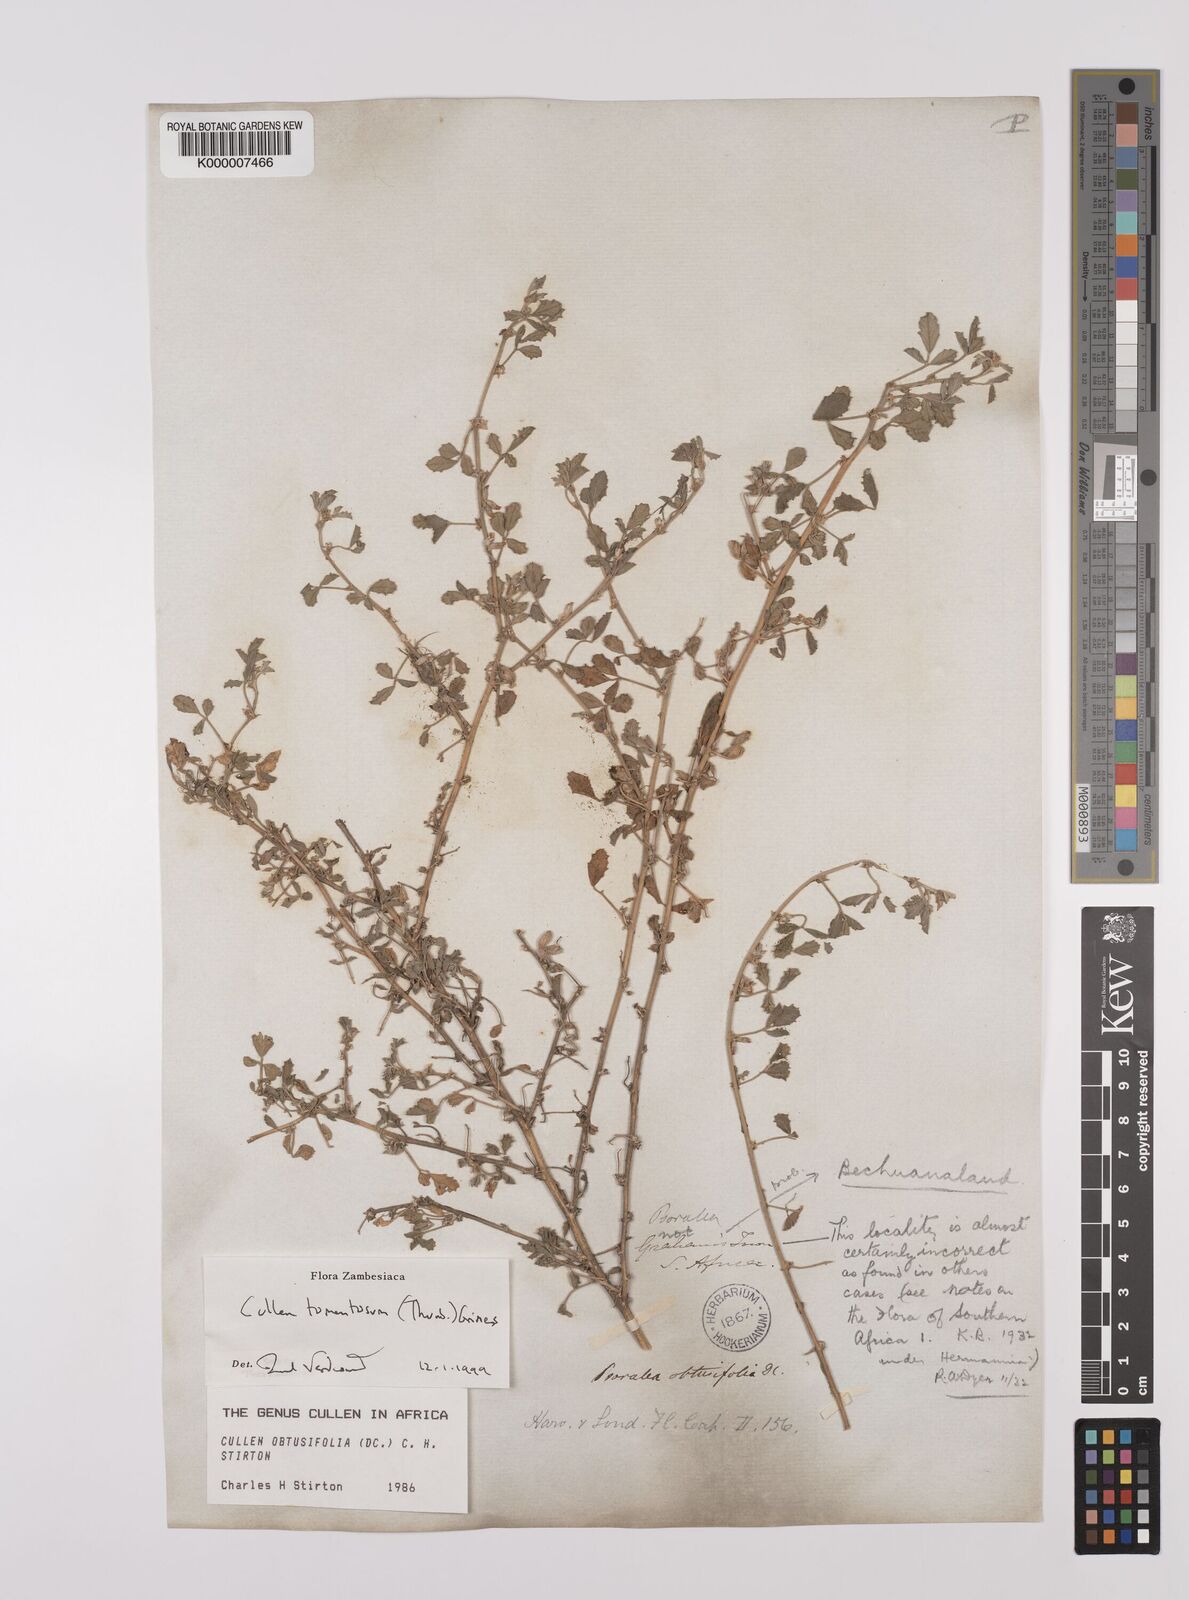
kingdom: Plantae
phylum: Tracheophyta
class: Magnoliopsida
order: Fabales
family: Fabaceae
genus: Cullen
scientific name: Cullen tomentosum
